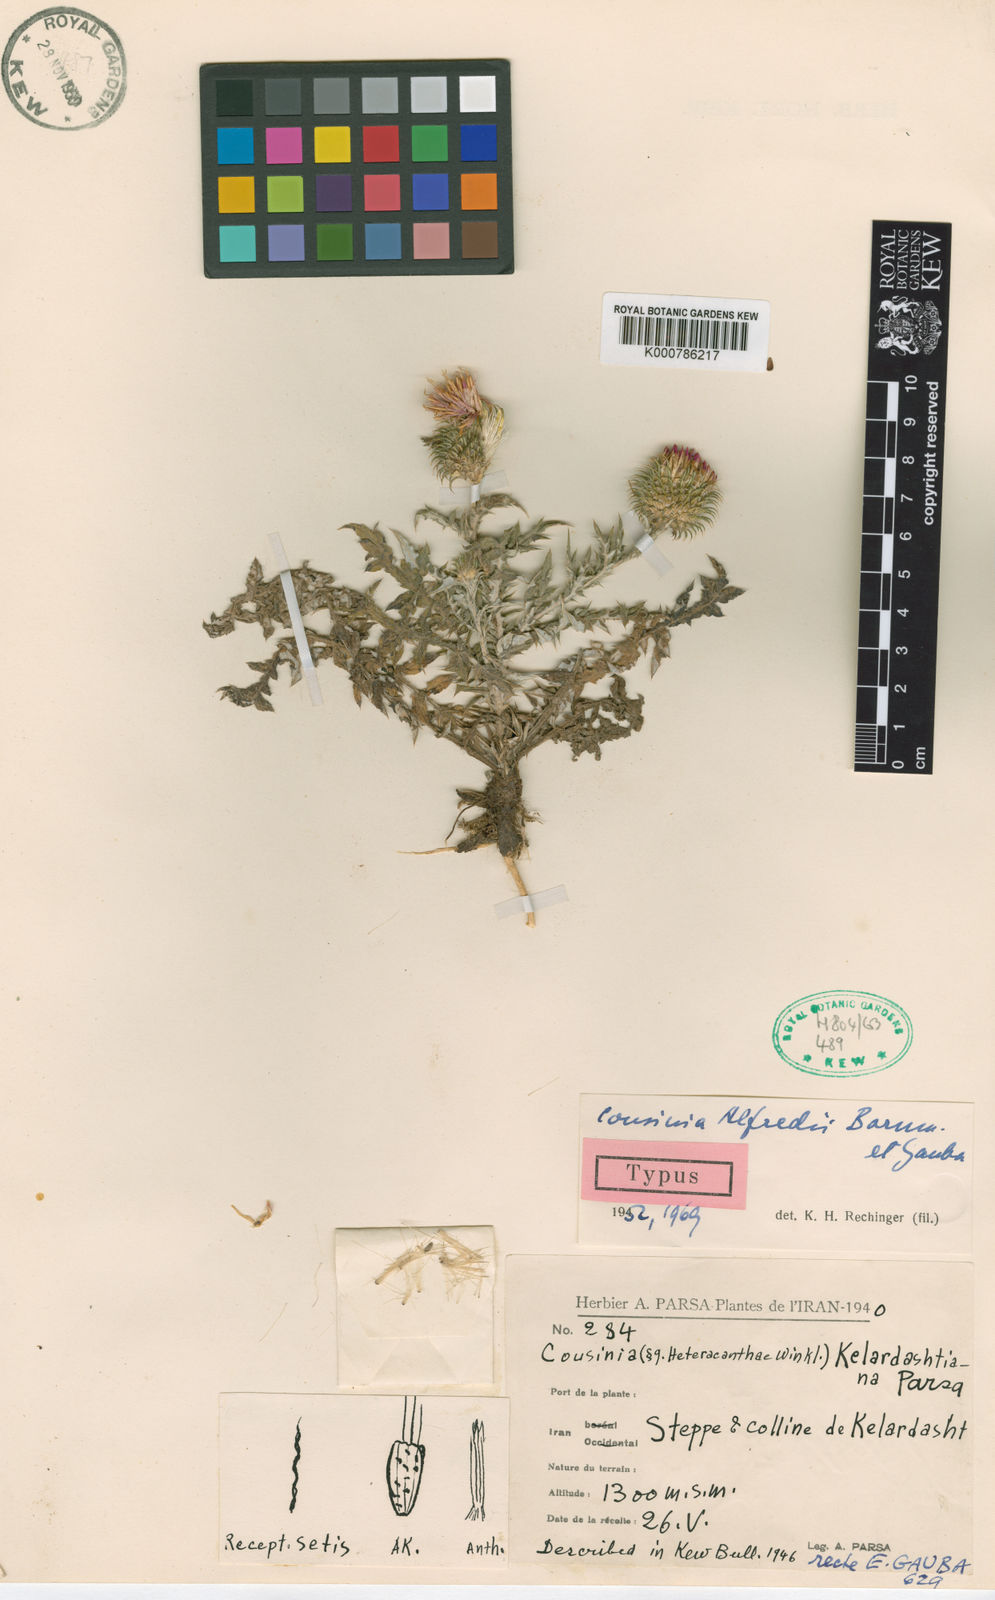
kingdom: Plantae
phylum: Tracheophyta
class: Magnoliopsida
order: Asterales
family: Asteraceae
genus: Cousinia
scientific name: Cousinia alfredii
